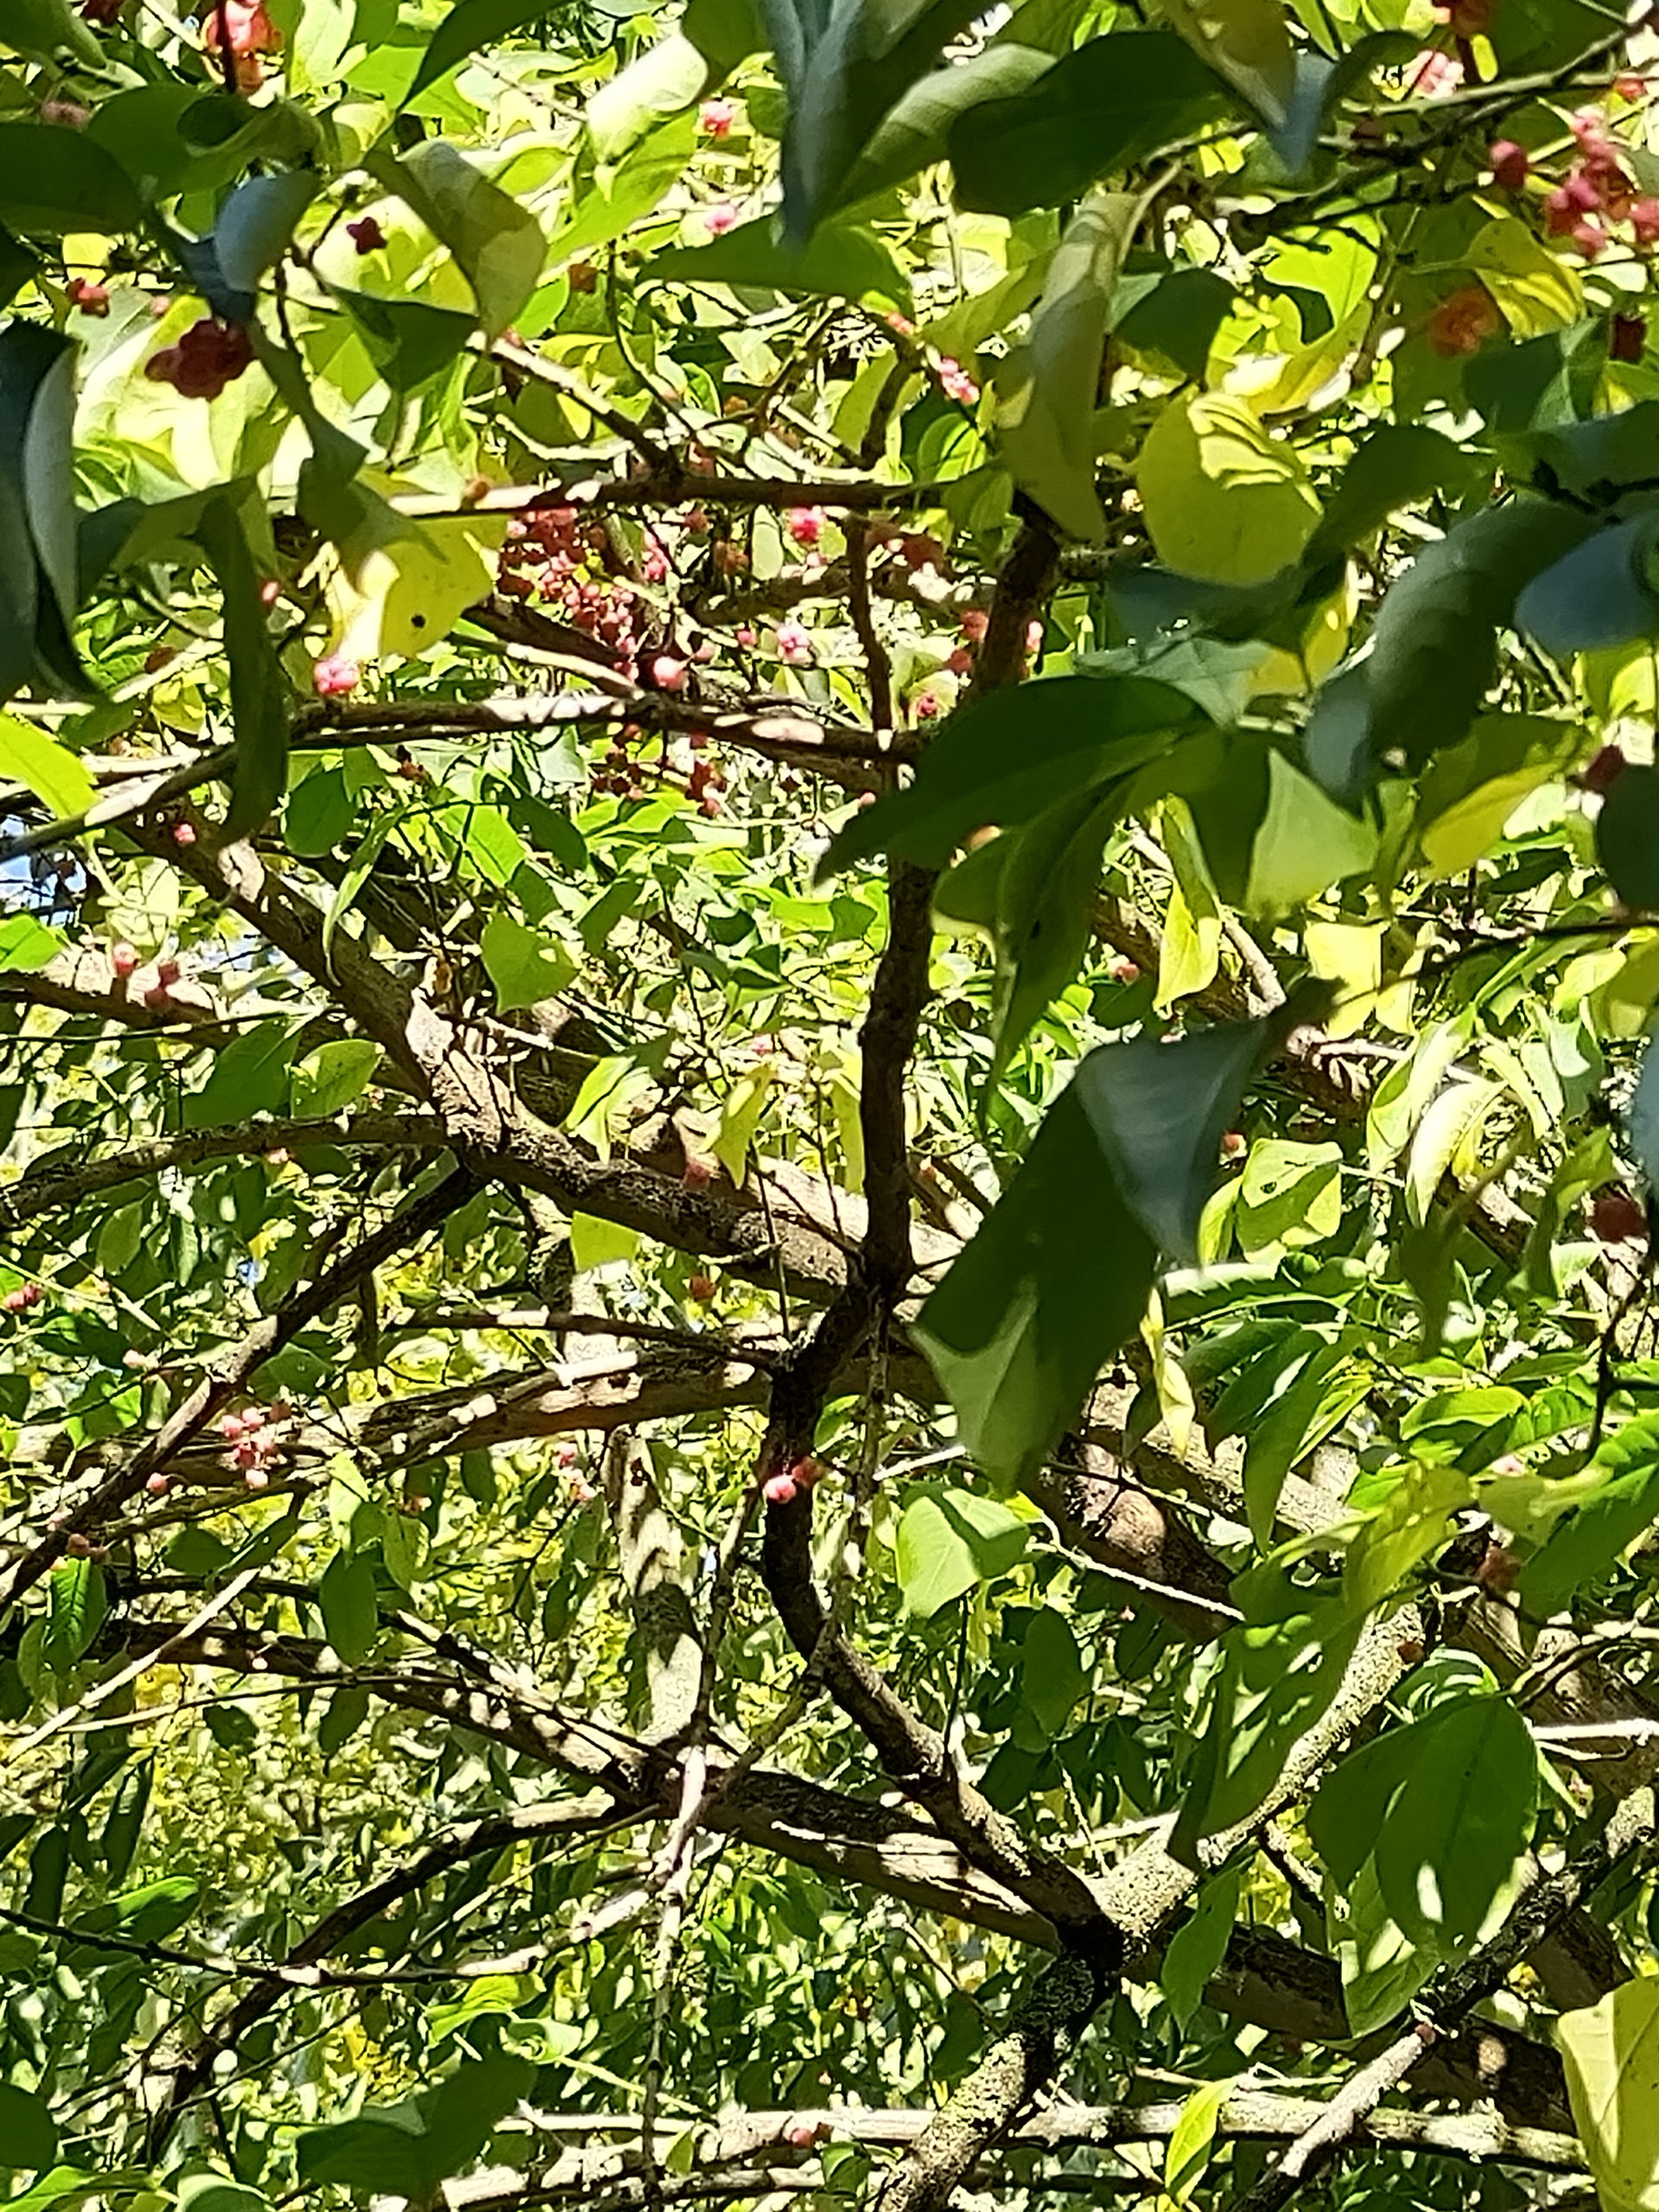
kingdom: Plantae
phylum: Tracheophyta
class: Magnoliopsida
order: Celastrales
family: Celastraceae
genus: Euonymus
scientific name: Euonymus europaeus
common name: Benved
